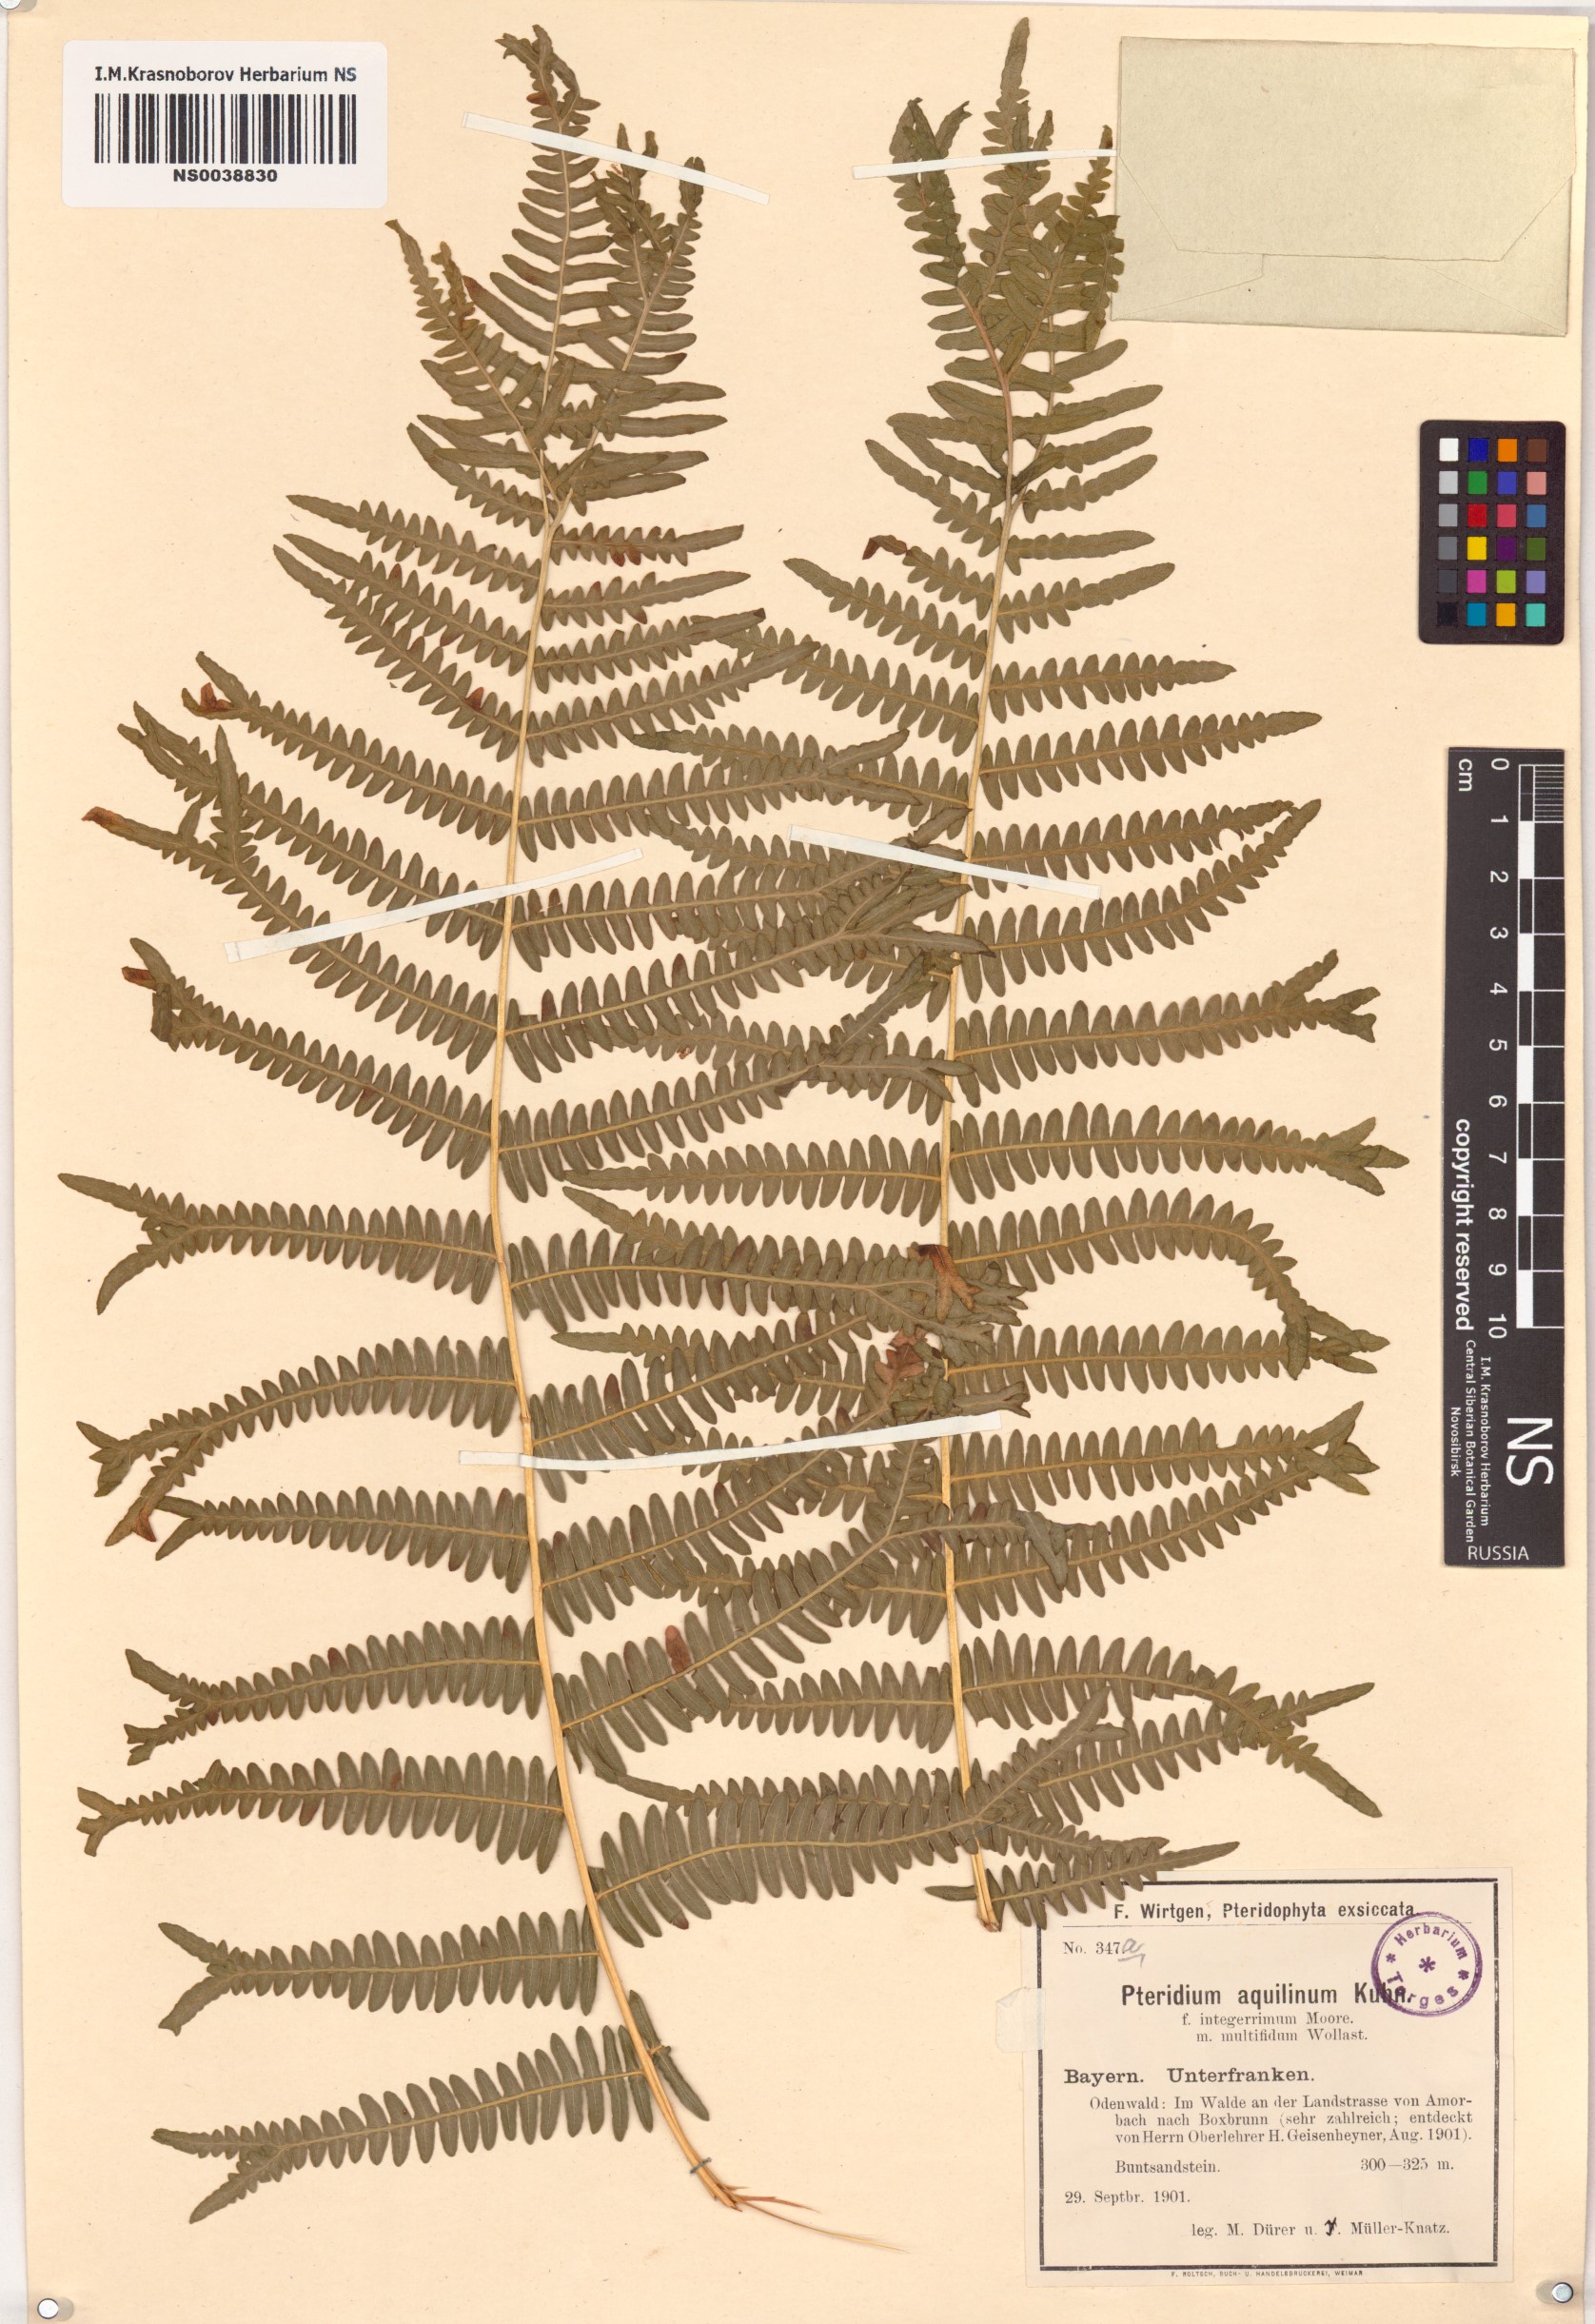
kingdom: Plantae
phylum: Tracheophyta
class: Polypodiopsida
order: Polypodiales
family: Dennstaedtiaceae
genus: Pteridium
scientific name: Pteridium aquilinum
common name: Bracken
